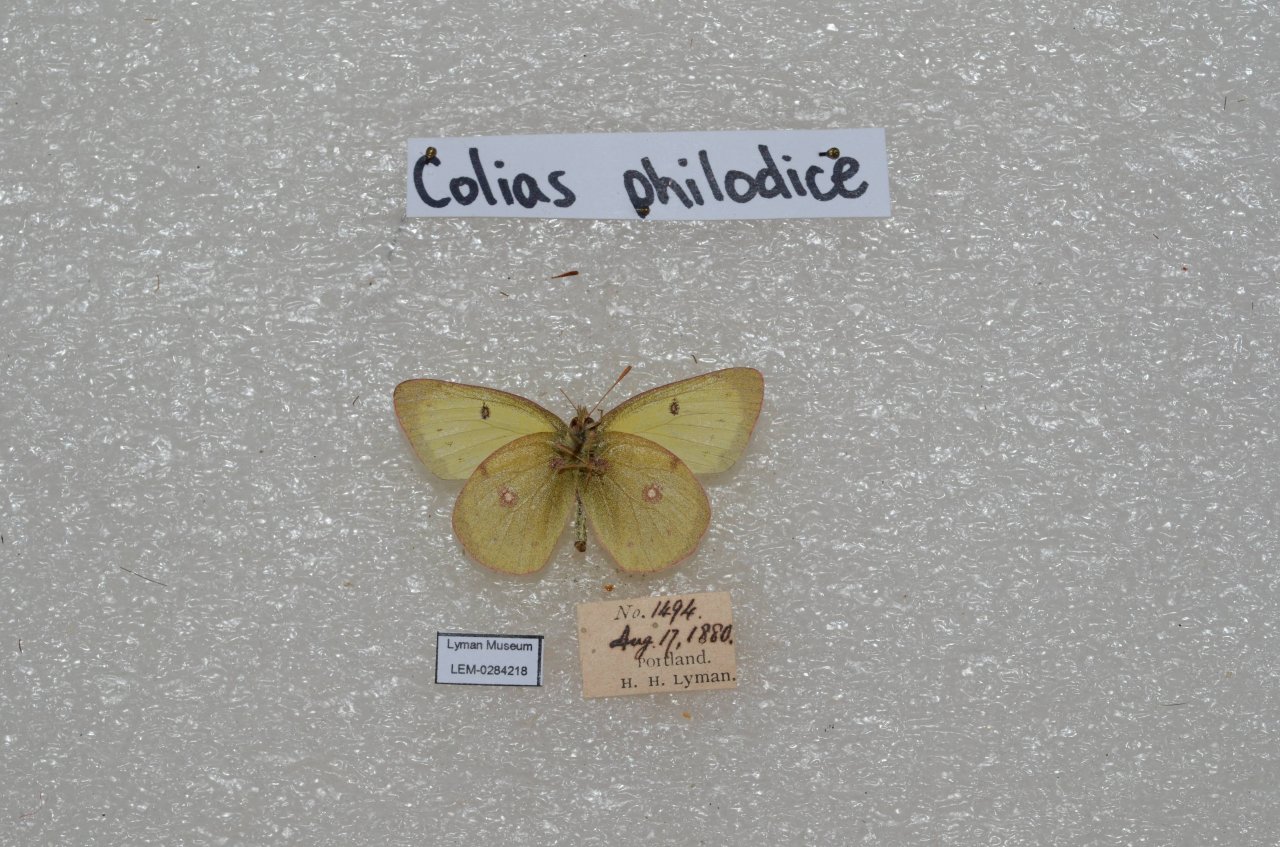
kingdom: Animalia
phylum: Arthropoda
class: Insecta
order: Lepidoptera
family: Pieridae
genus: Colias
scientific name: Colias philodice
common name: Clouded Sulphur
